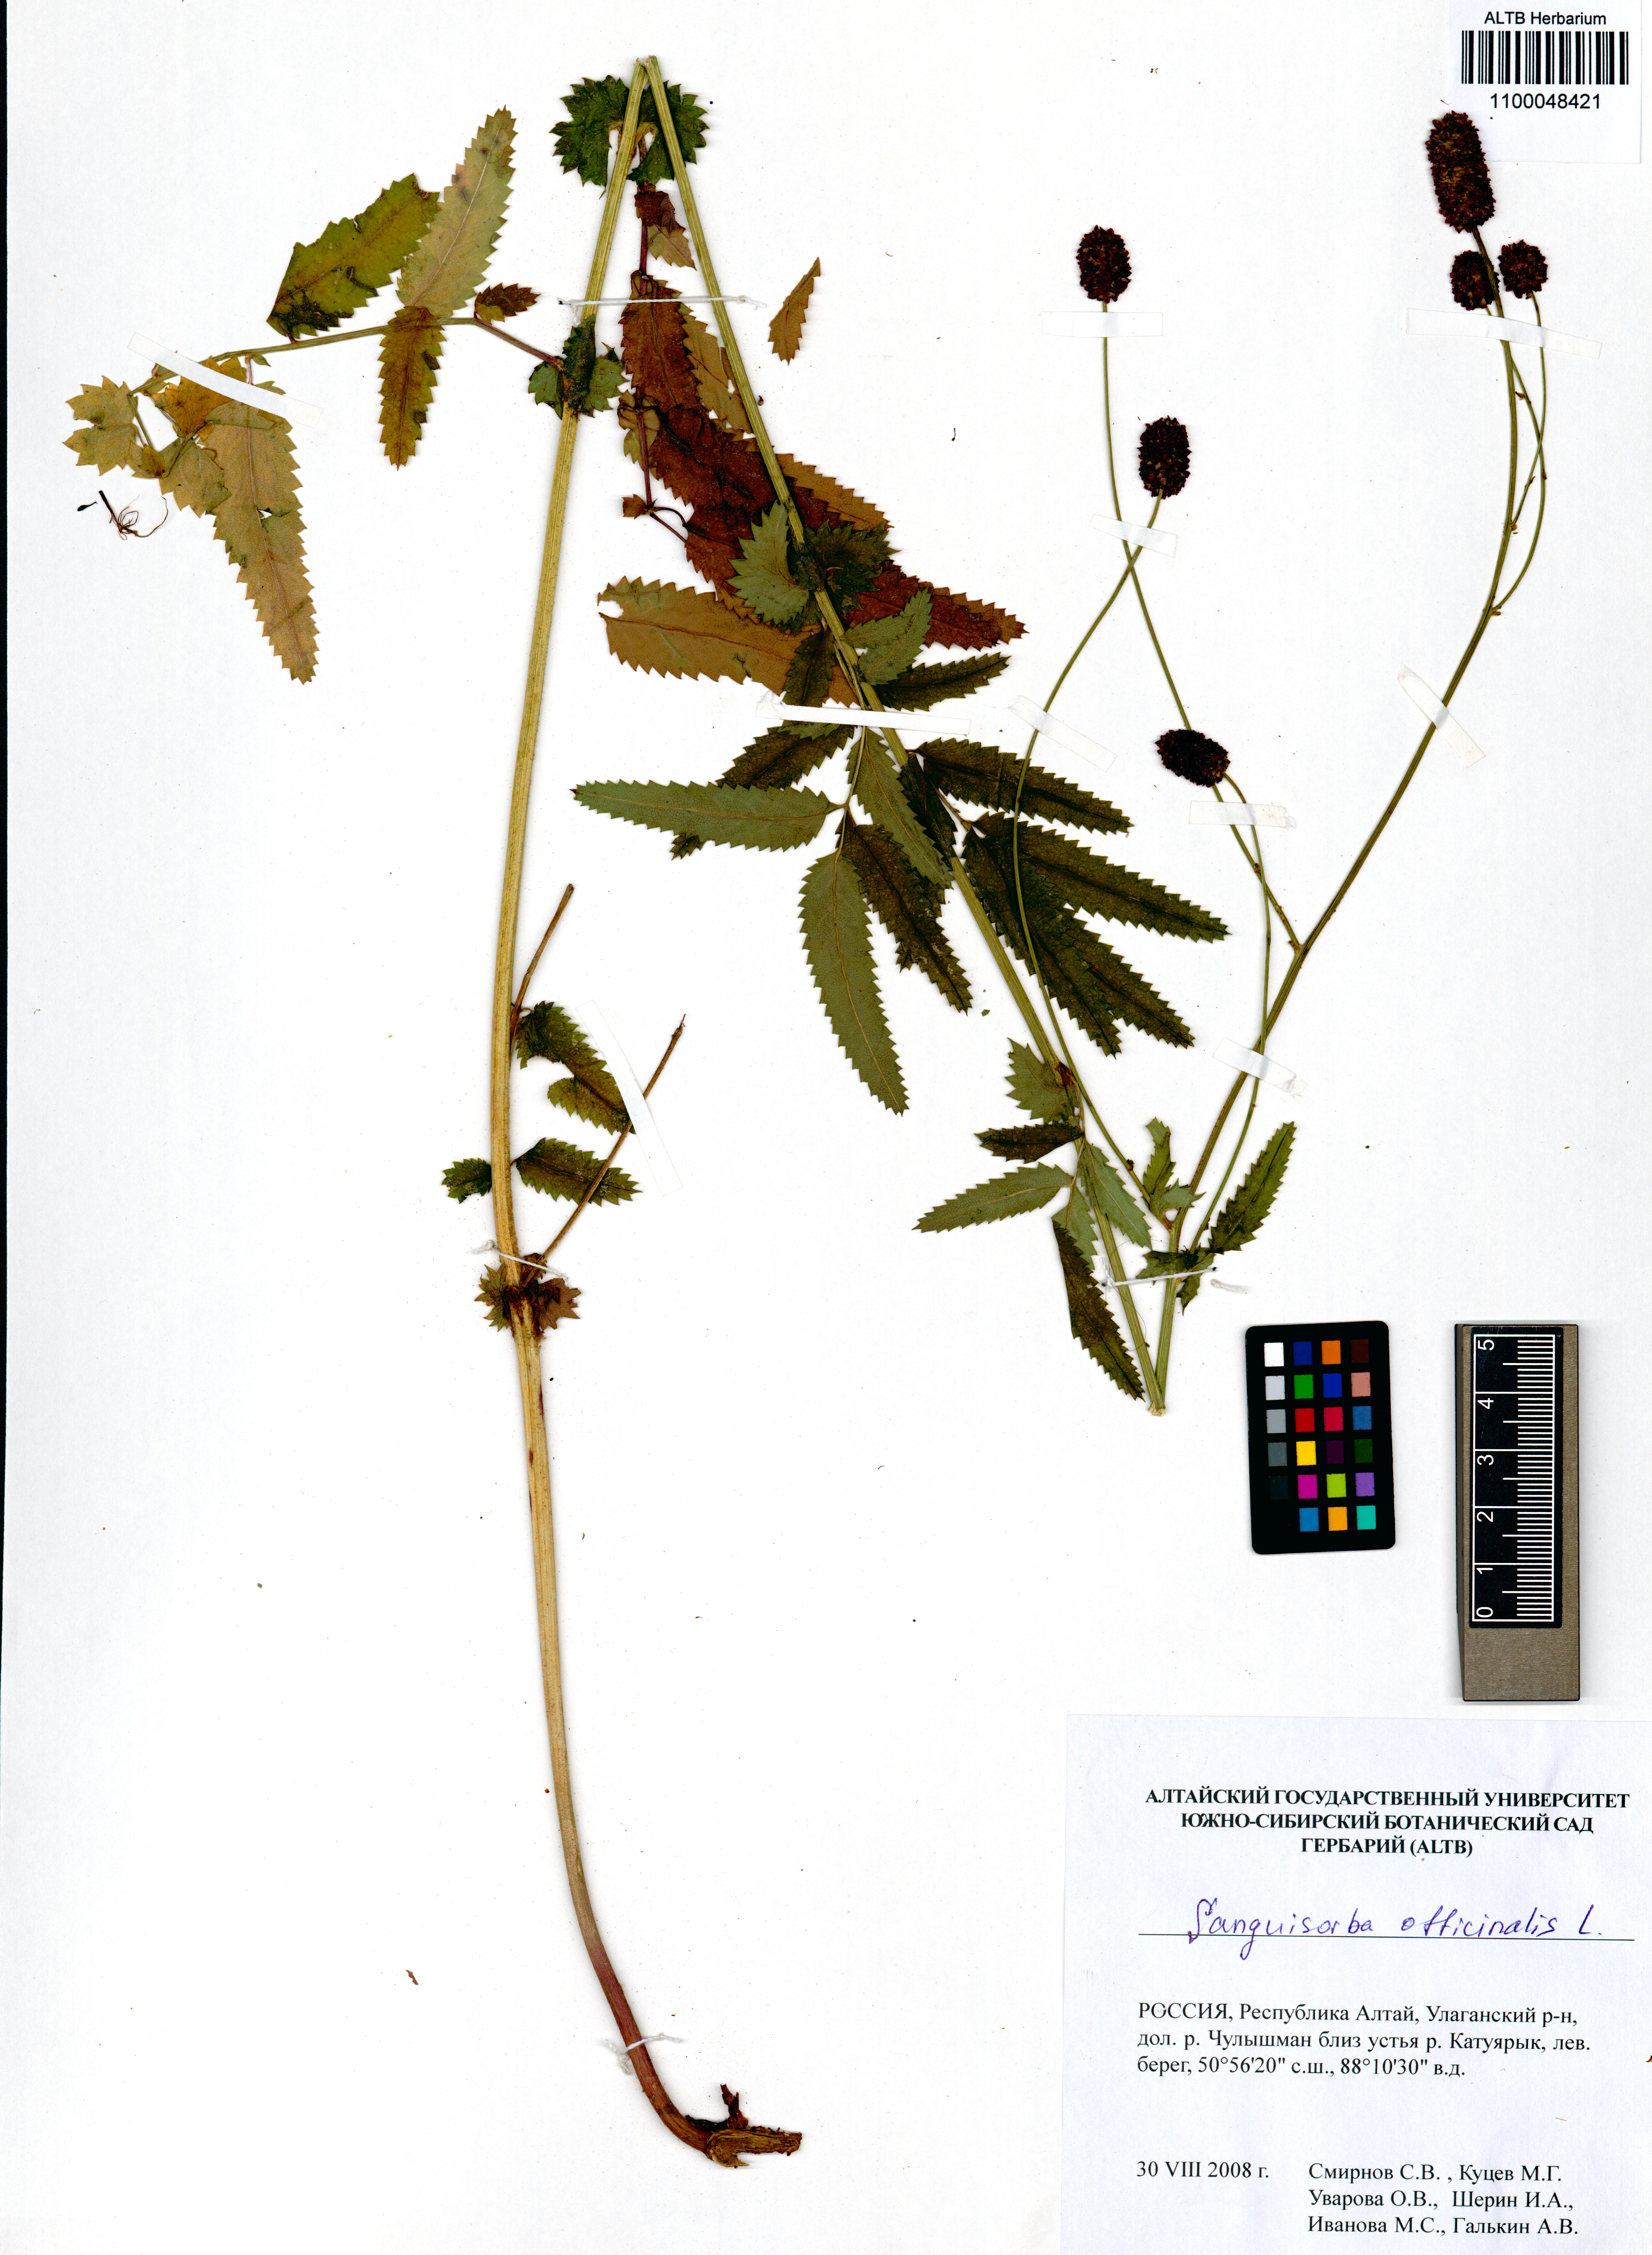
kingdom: Plantae
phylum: Tracheophyta
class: Magnoliopsida
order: Rosales
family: Rosaceae
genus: Sanguisorba
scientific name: Sanguisorba officinalis
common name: Great burnet
